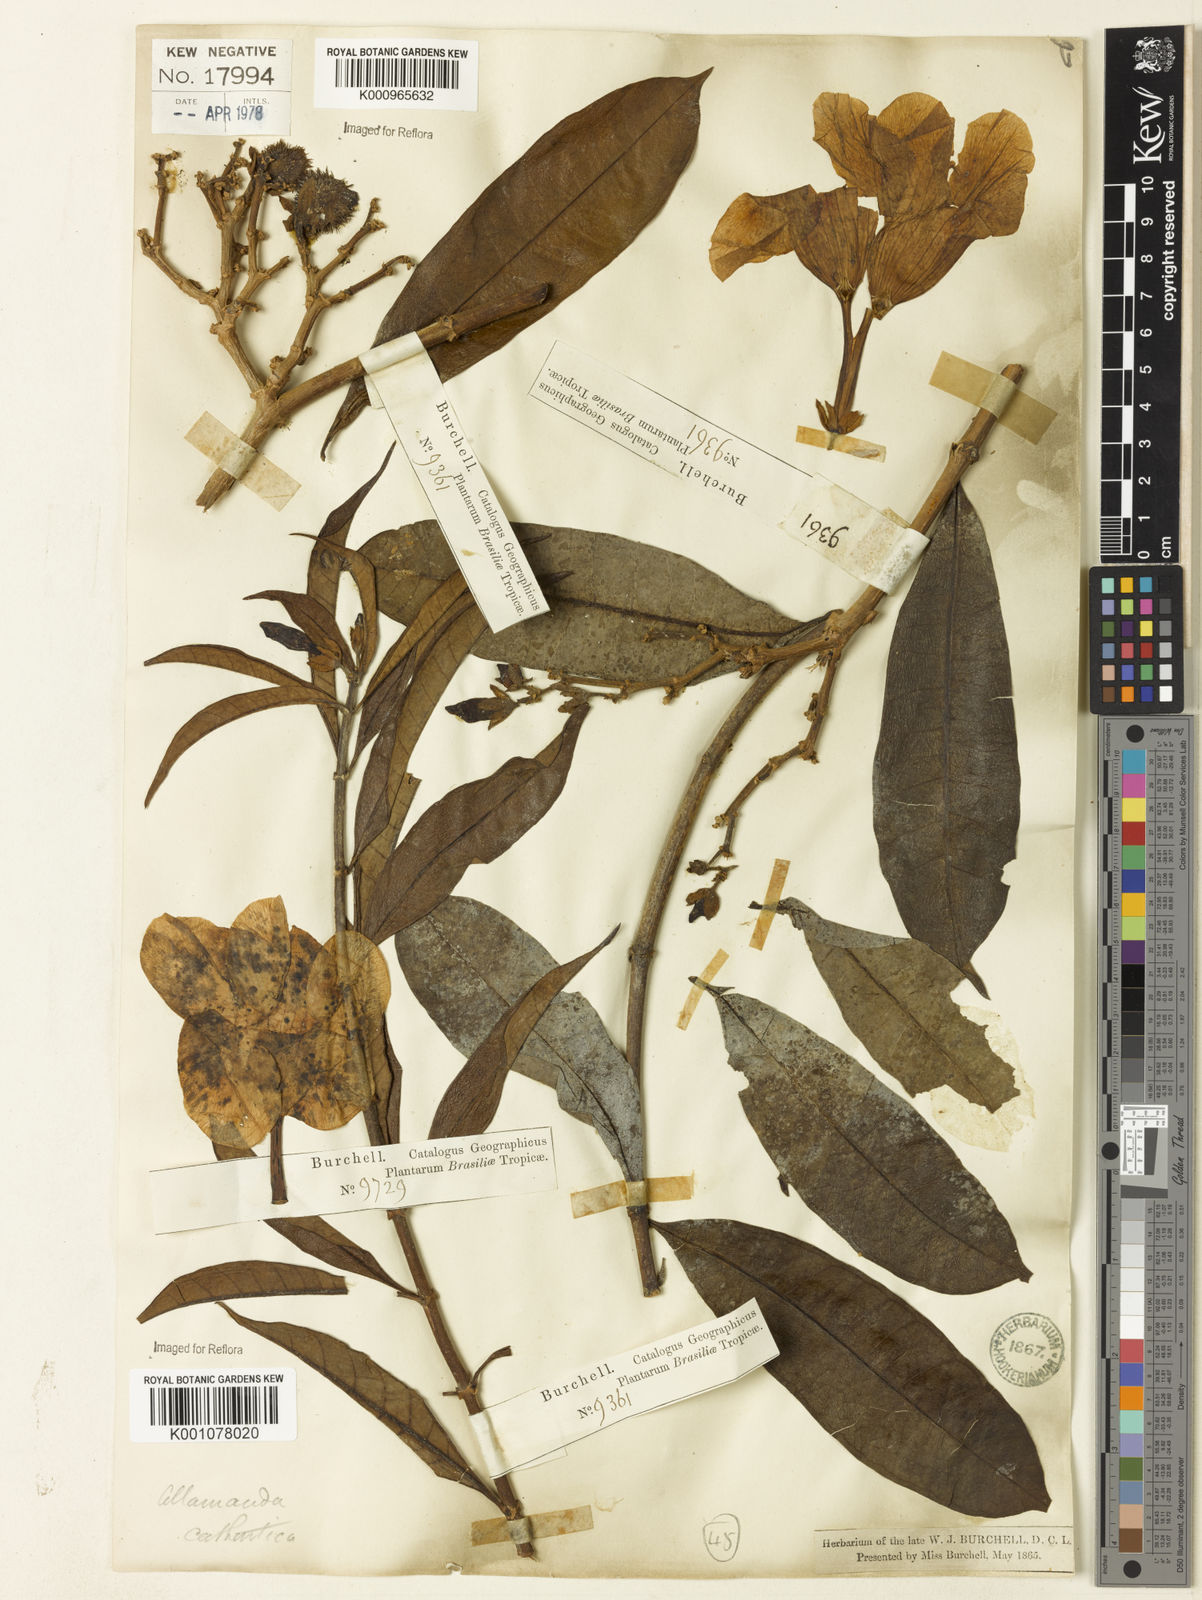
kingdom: Plantae
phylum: Tracheophyta
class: Magnoliopsida
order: Gentianales
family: Apocynaceae
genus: Allamanda
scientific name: Allamanda cathartica
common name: Golden trumpet
